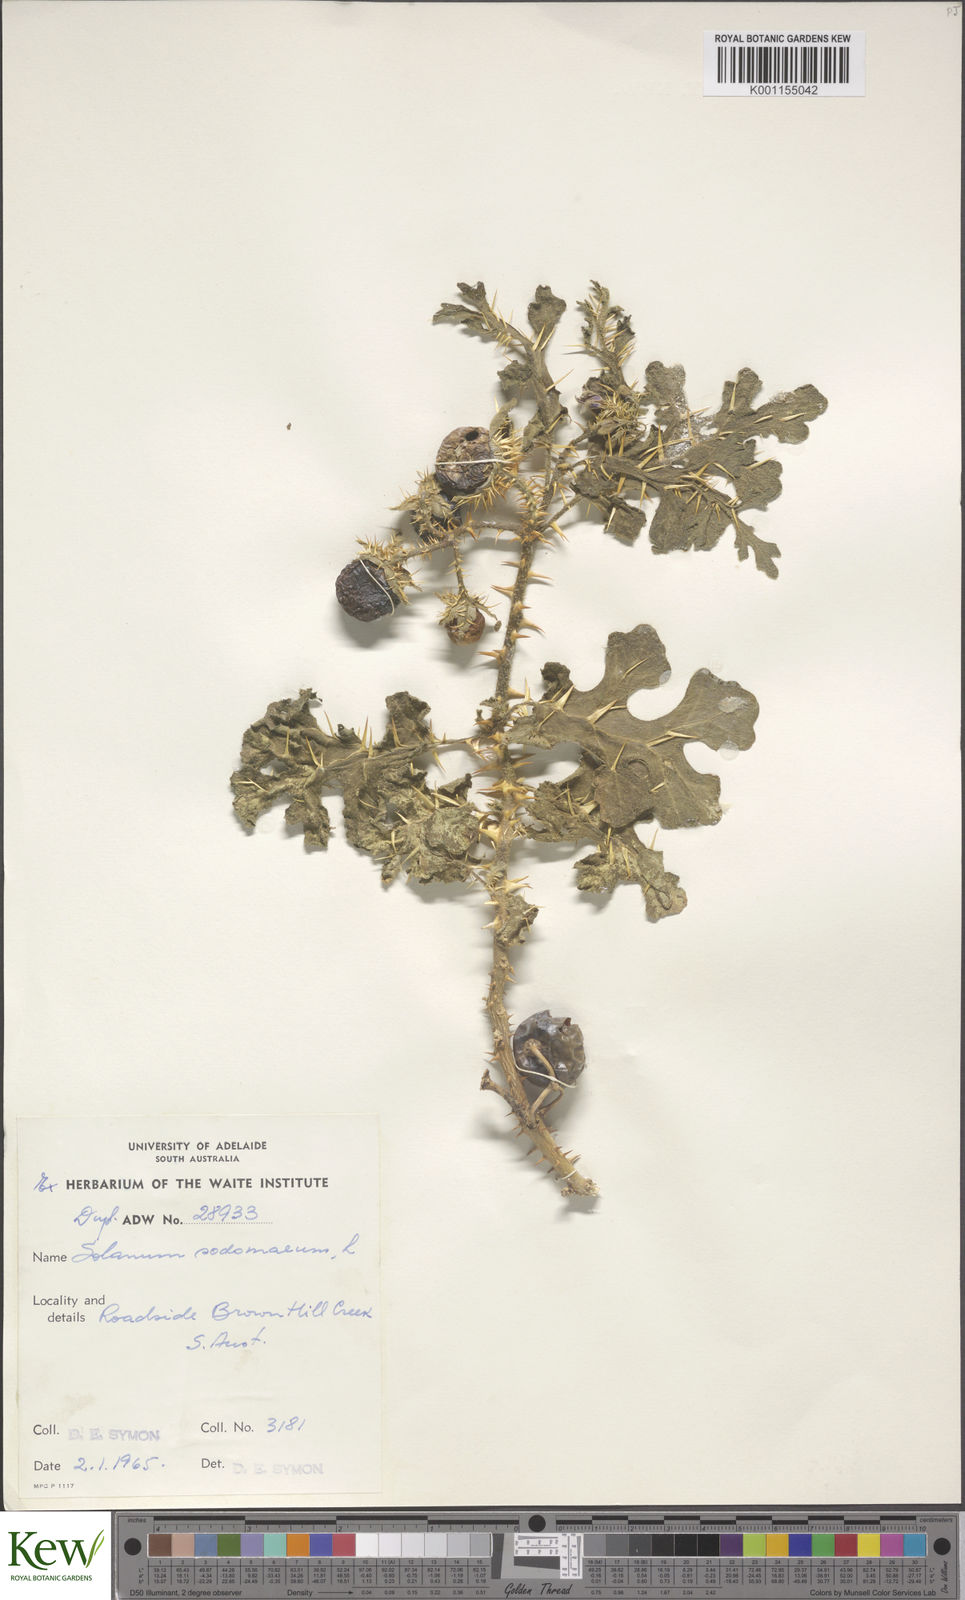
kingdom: Plantae
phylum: Tracheophyta
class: Magnoliopsida
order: Solanales
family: Solanaceae
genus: Solanum
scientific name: Solanum anguivi
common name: Forest bitterberry
